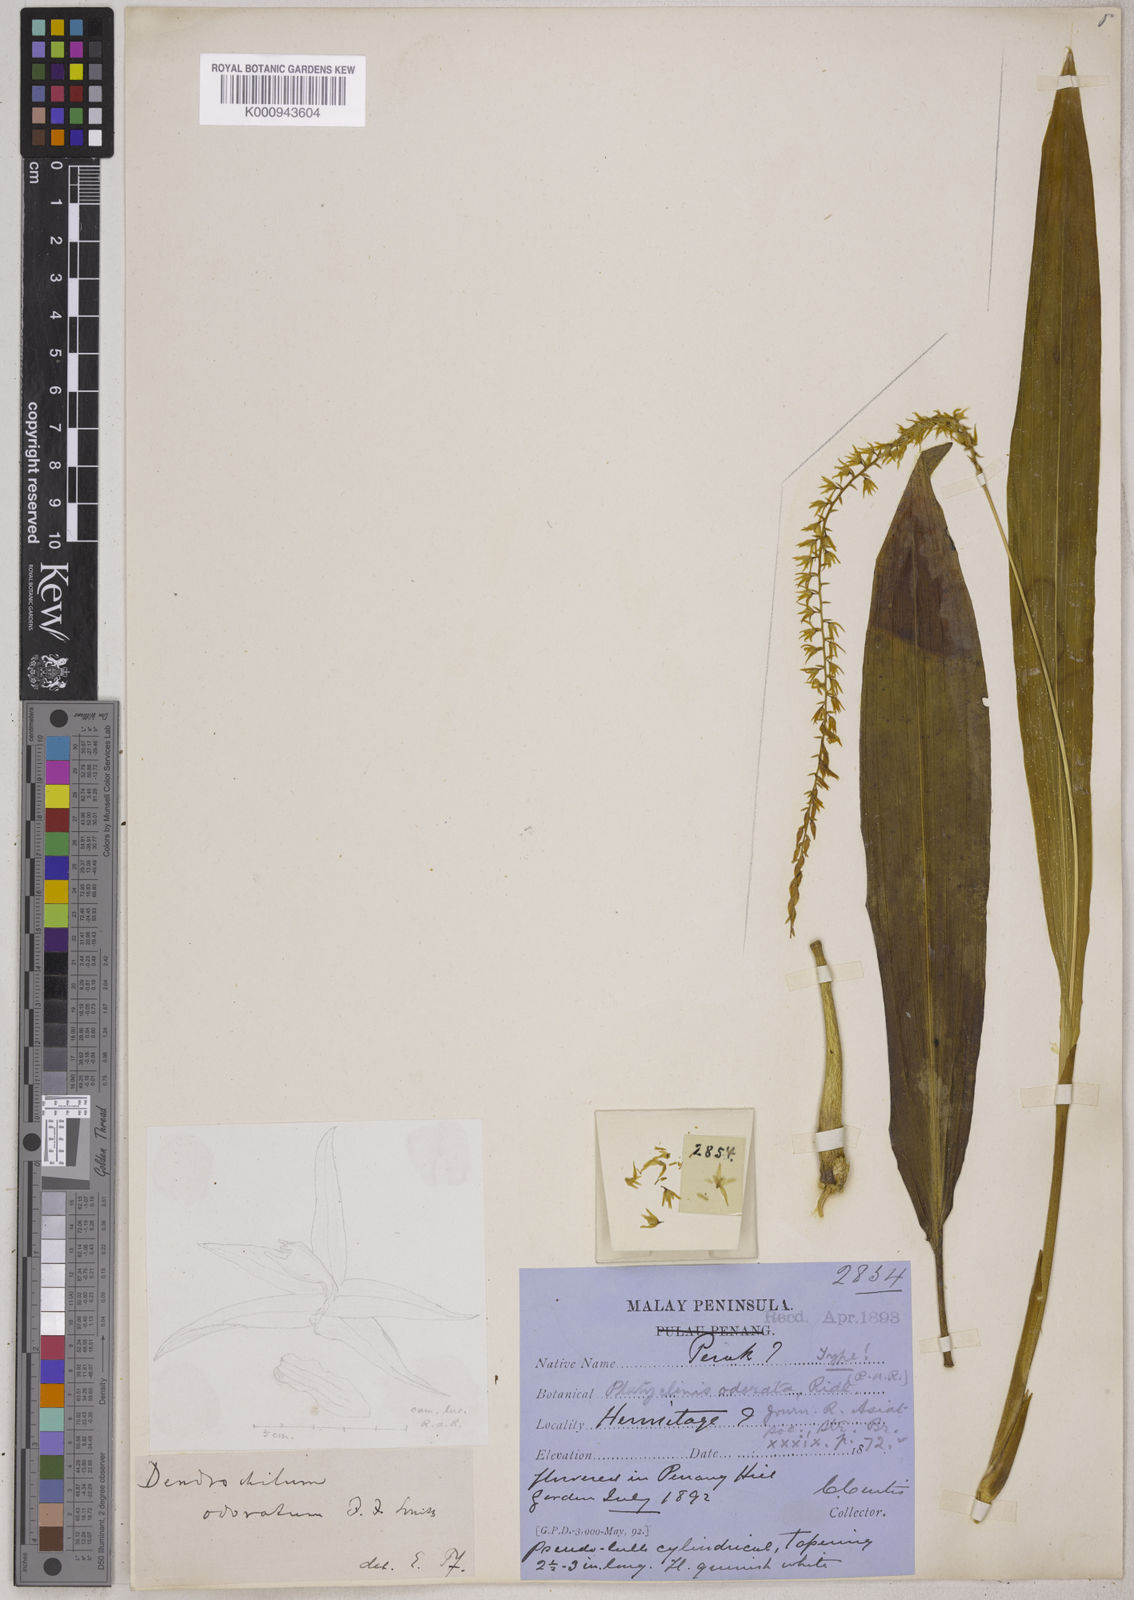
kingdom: Plantae
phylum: Tracheophyta
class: Liliopsida
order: Asparagales
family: Orchidaceae
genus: Coelogyne
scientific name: Coelogyne odorata
